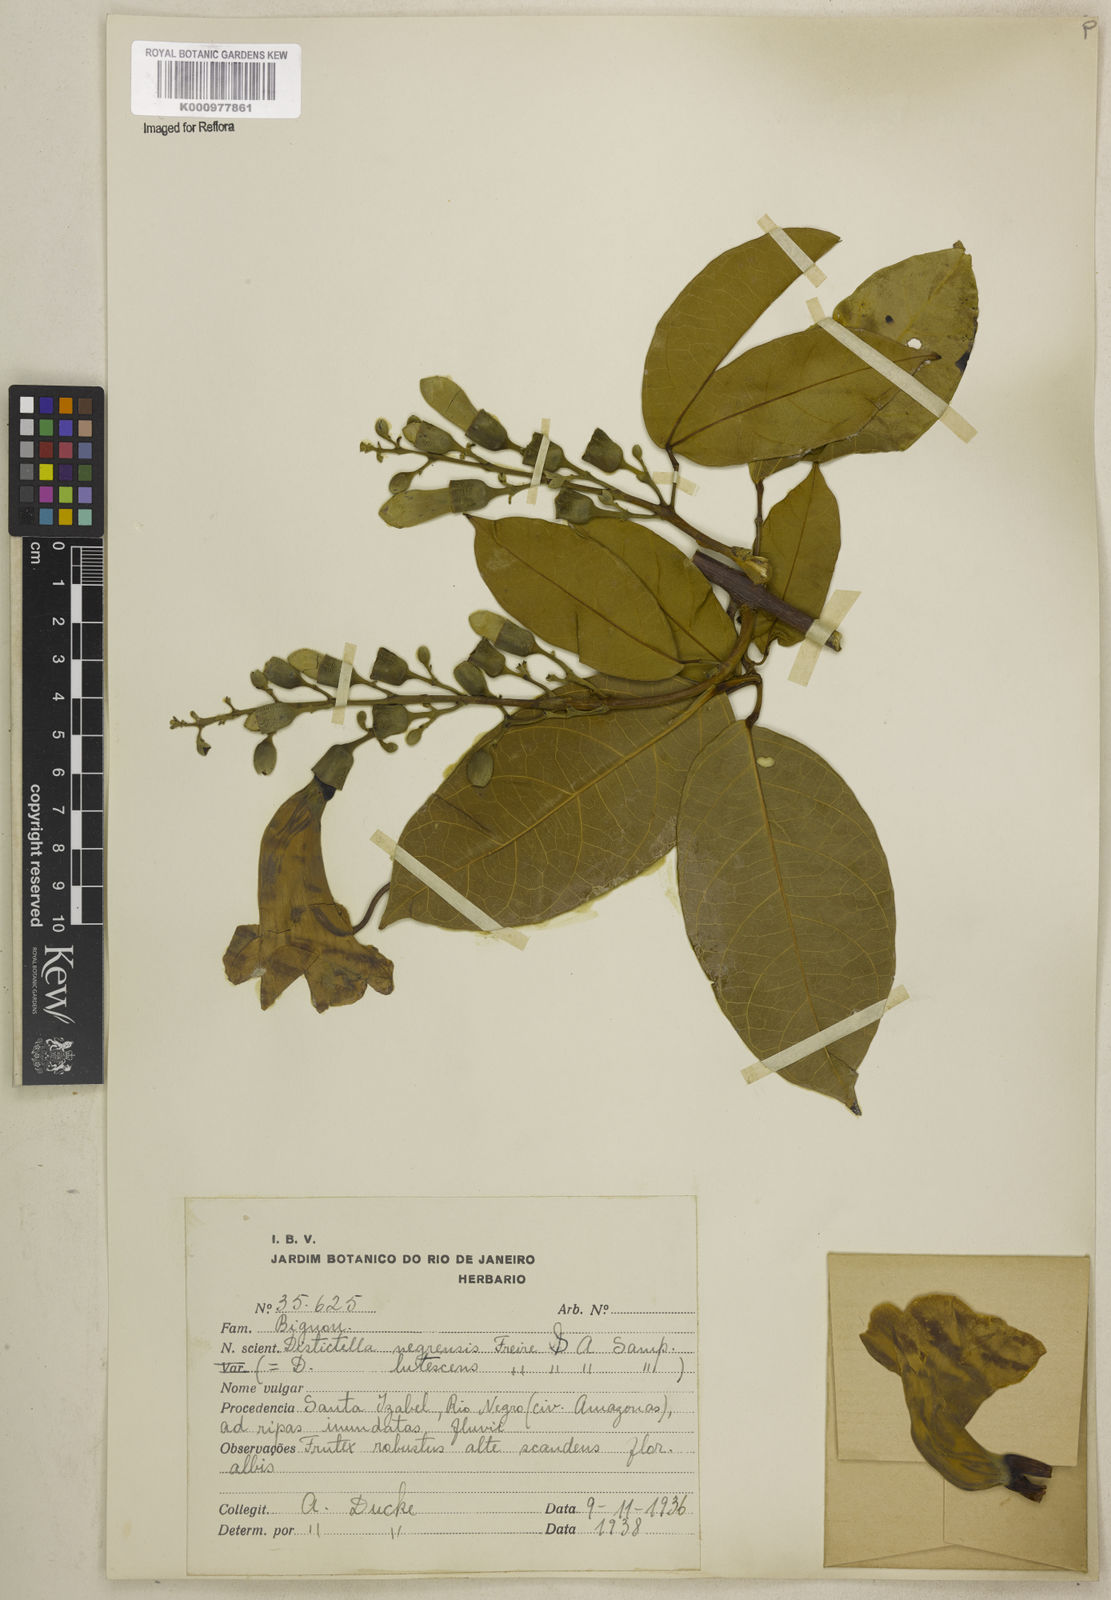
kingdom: Plantae
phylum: Tracheophyta
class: Magnoliopsida
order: Lamiales
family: Bignoniaceae
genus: Amphilophium
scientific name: Amphilophium racemosum
